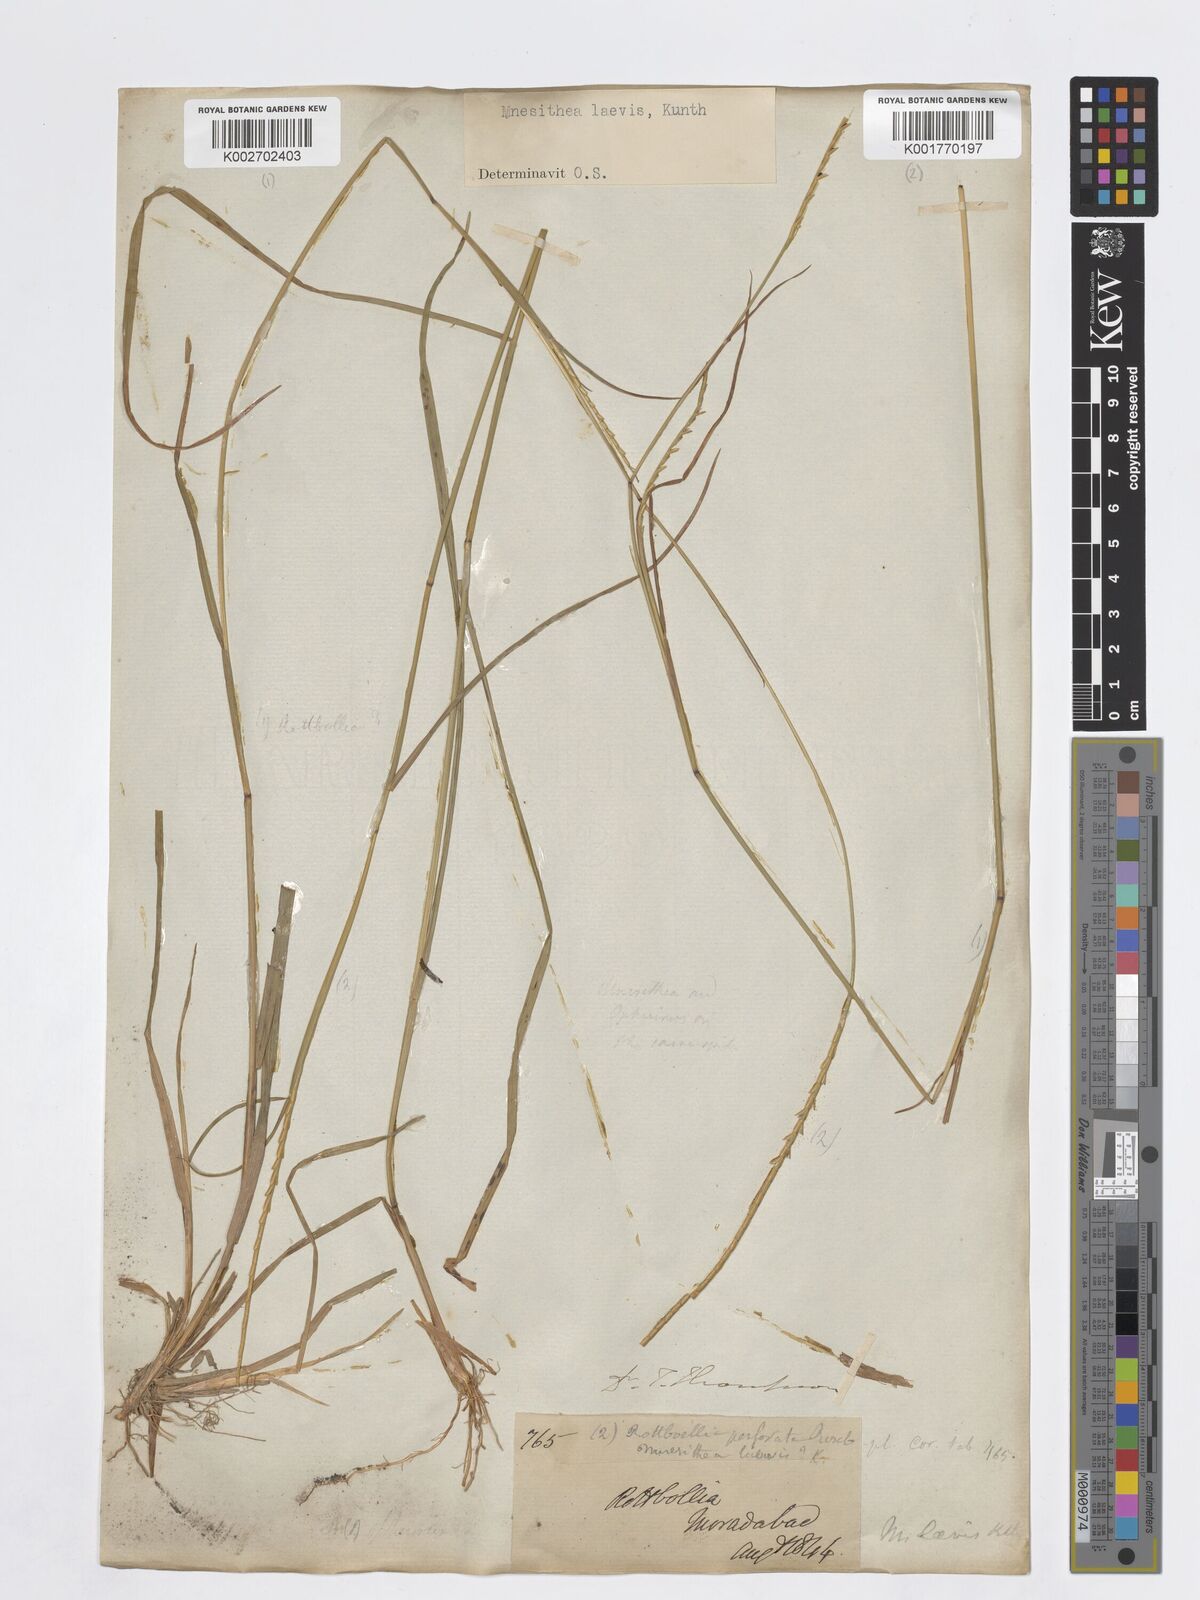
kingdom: Plantae
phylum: Tracheophyta
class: Liliopsida
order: Poales
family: Poaceae
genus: Mnesithea
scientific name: Mnesithea laevis
